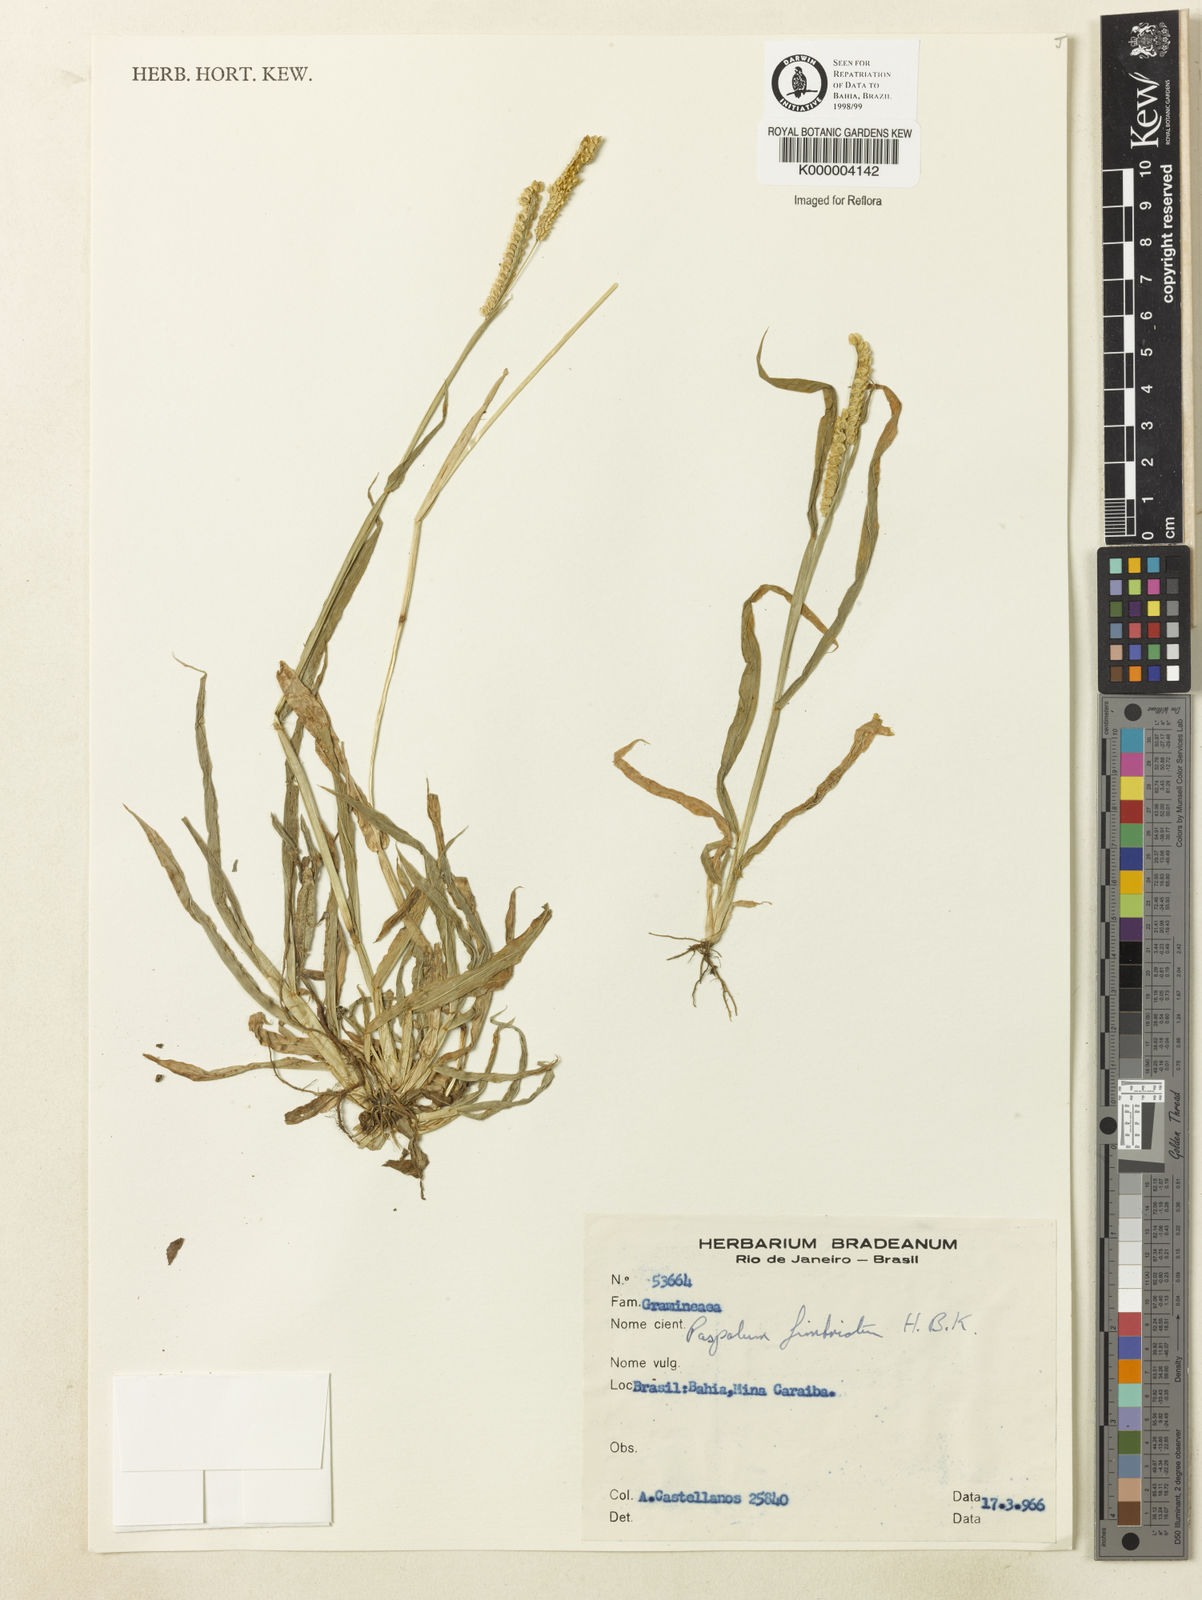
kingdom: Plantae
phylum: Tracheophyta
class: Liliopsida
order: Poales
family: Poaceae
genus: Paspalum
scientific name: Paspalum fimbriatum
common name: Panama crowngrass
